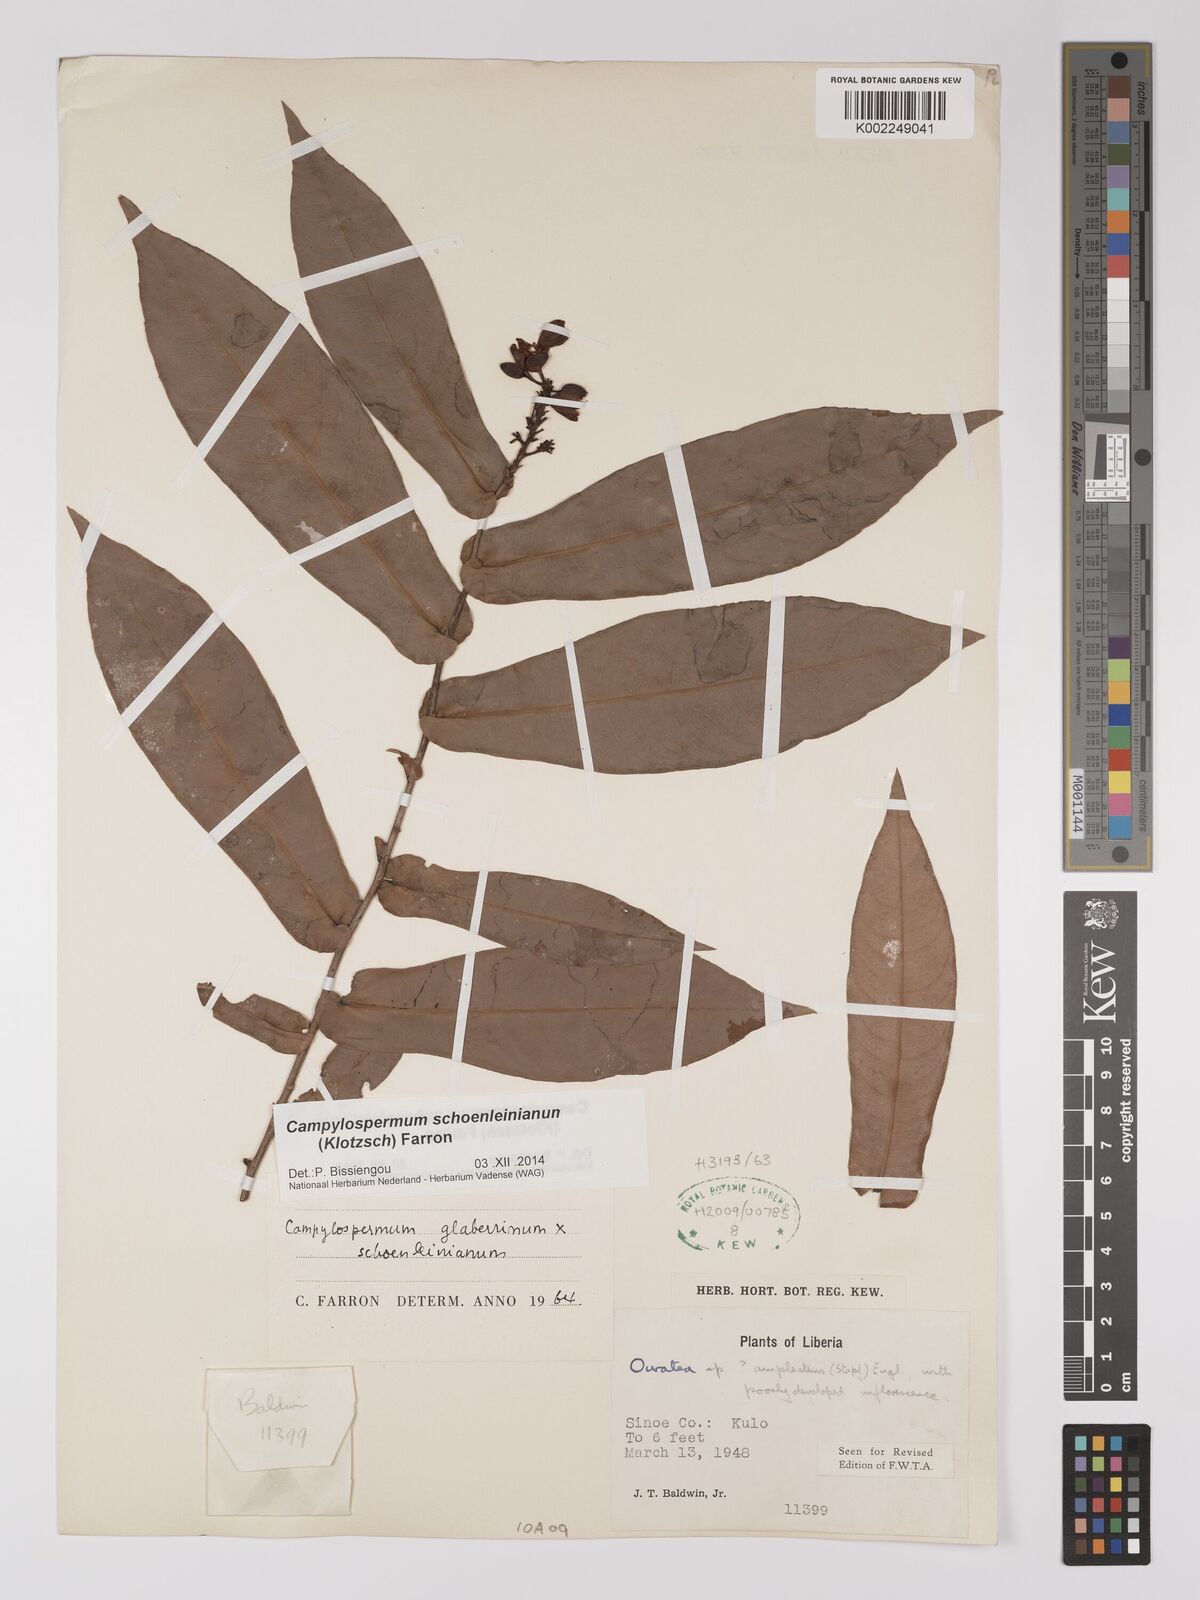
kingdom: Plantae
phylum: Tracheophyta
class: Magnoliopsida
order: Malpighiales
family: Ochnaceae
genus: Campylospermum
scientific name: Campylospermum schoenleinianum
